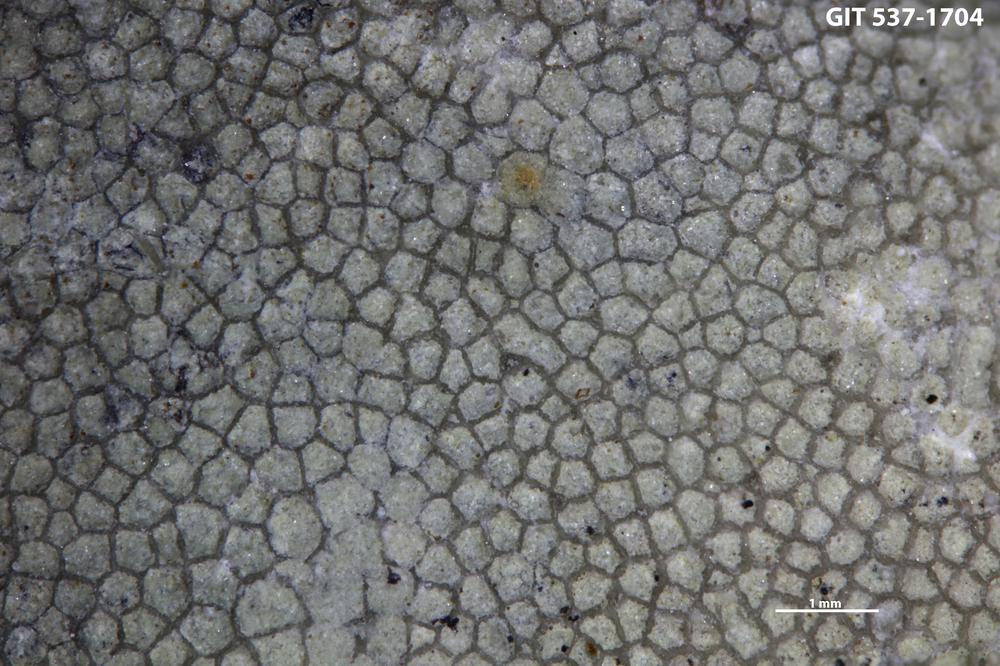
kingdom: Animalia
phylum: Bryozoa
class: Stenolaemata
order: Trepostomatida
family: Amplexoporidae
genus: Monotrypa
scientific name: Monotrypa jewensis
